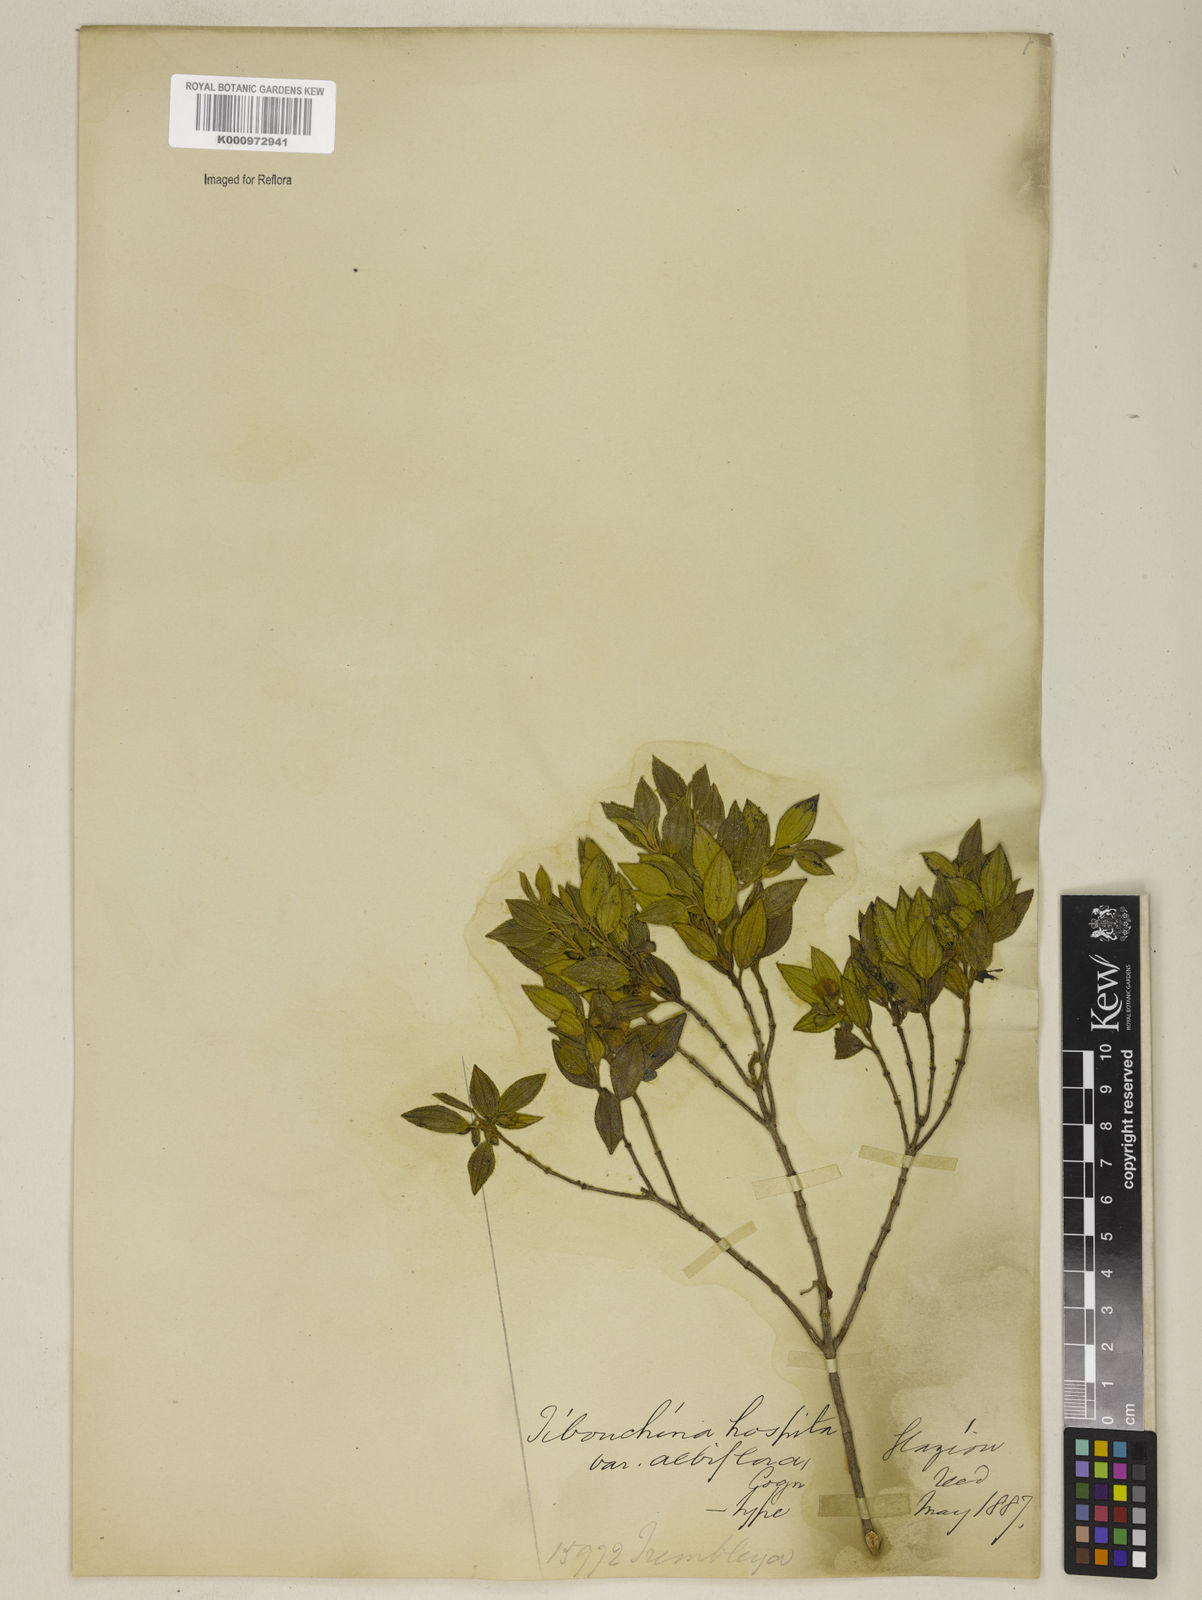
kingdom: Plantae
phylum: Tracheophyta
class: Magnoliopsida
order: Myrtales
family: Melastomataceae
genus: Pleroma
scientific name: Pleroma hospitum
